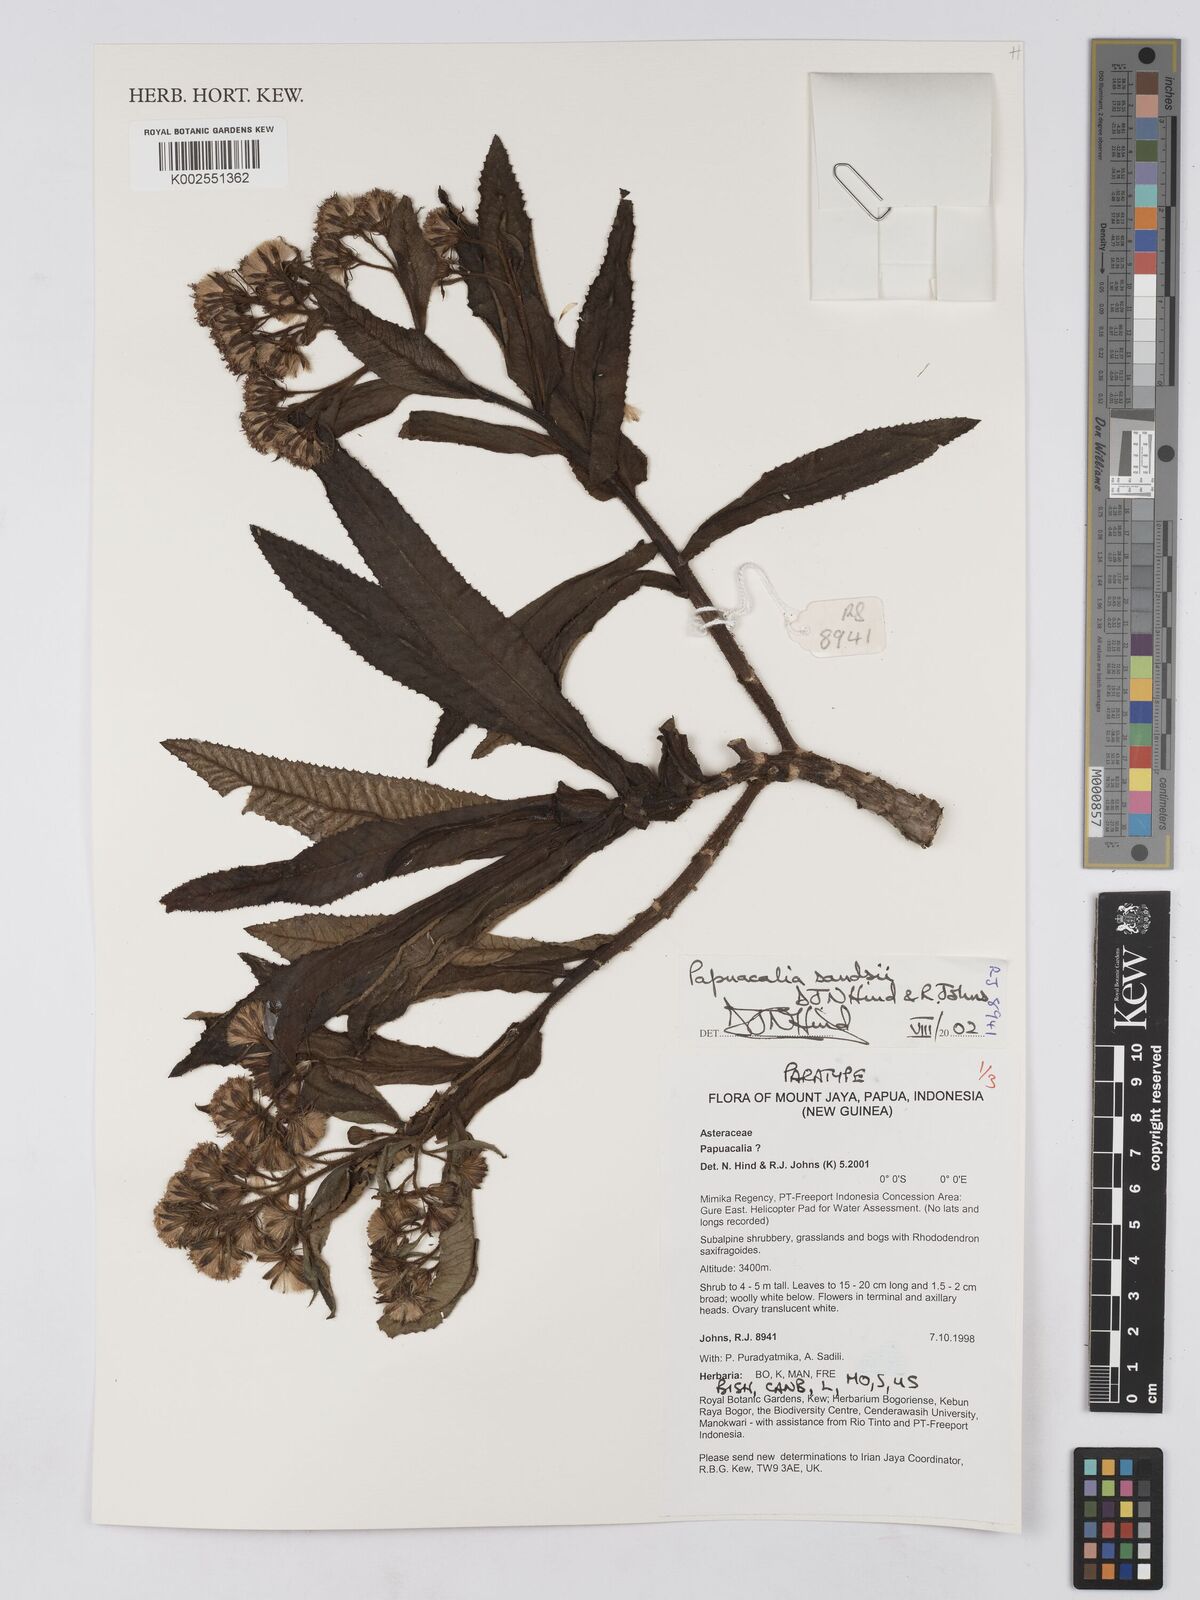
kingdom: Plantae
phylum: Tracheophyta
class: Magnoliopsida
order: Asterales
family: Asteraceae
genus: Papuacalia
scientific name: Papuacalia sandsii
